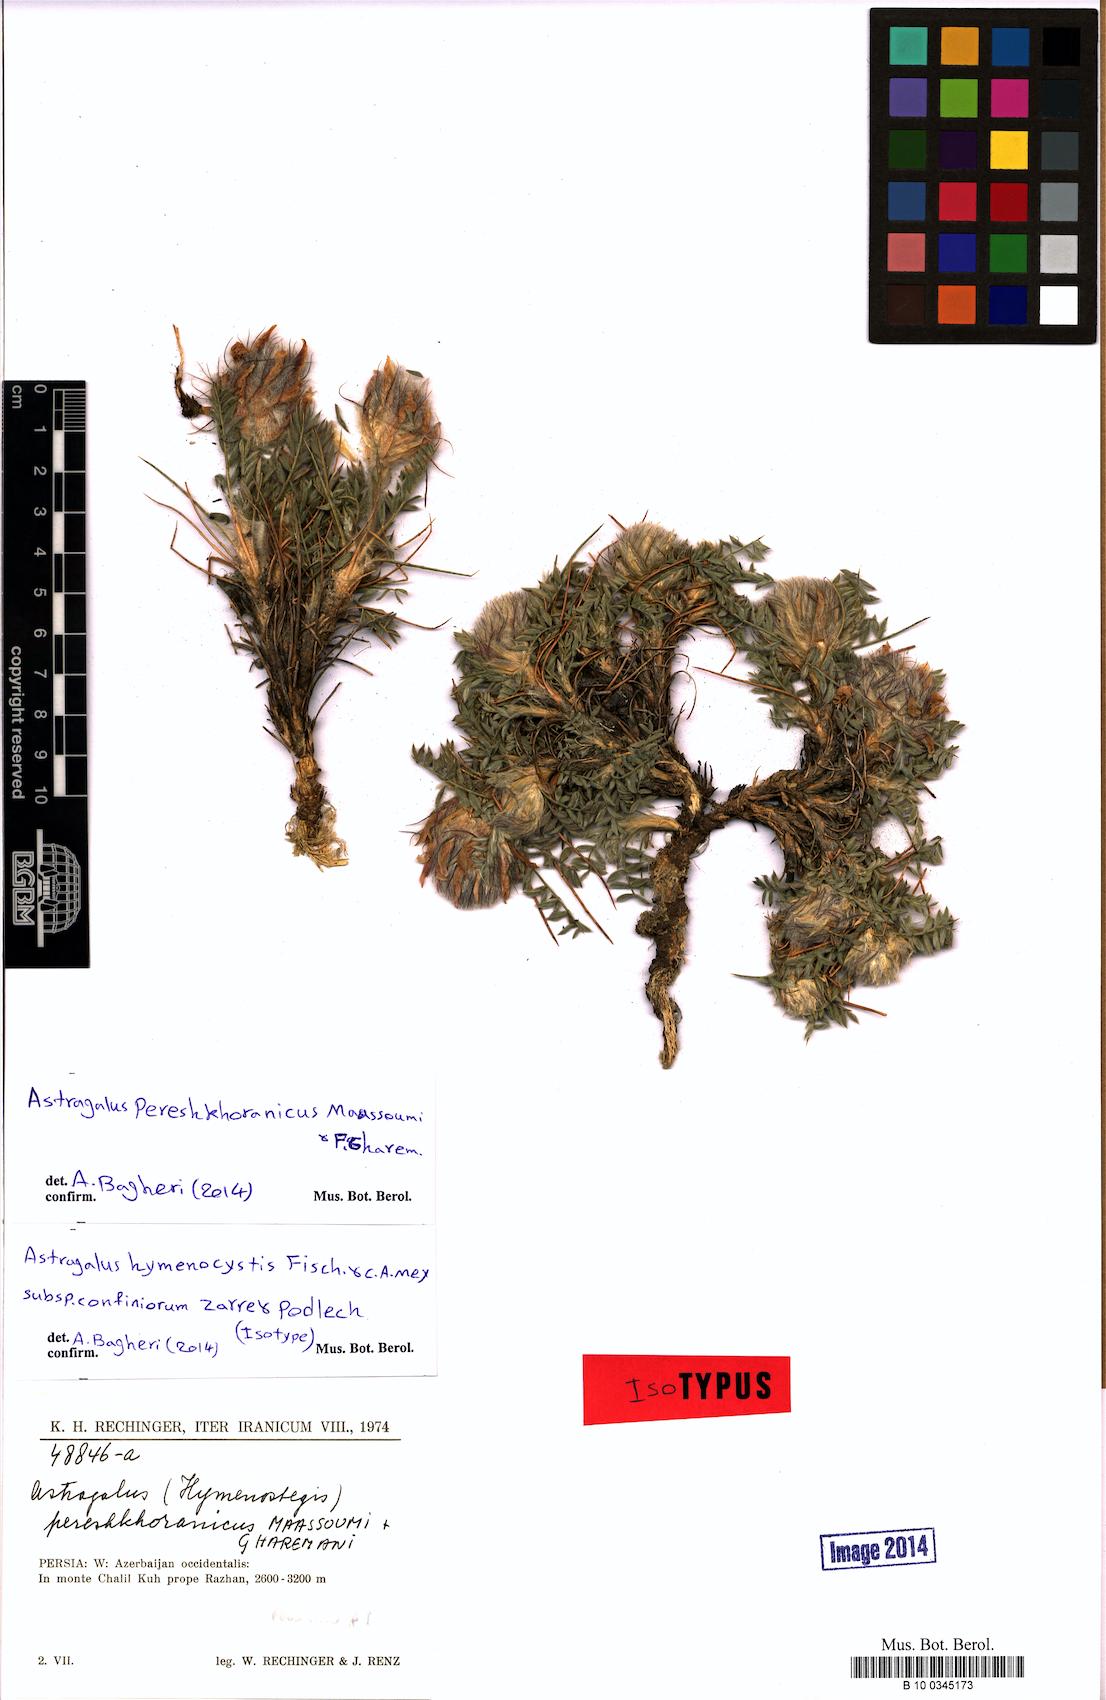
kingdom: Plantae
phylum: Tracheophyta
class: Magnoliopsida
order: Fabales
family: Fabaceae
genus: Astragalus
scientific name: Astragalus pereshkhoranicus
